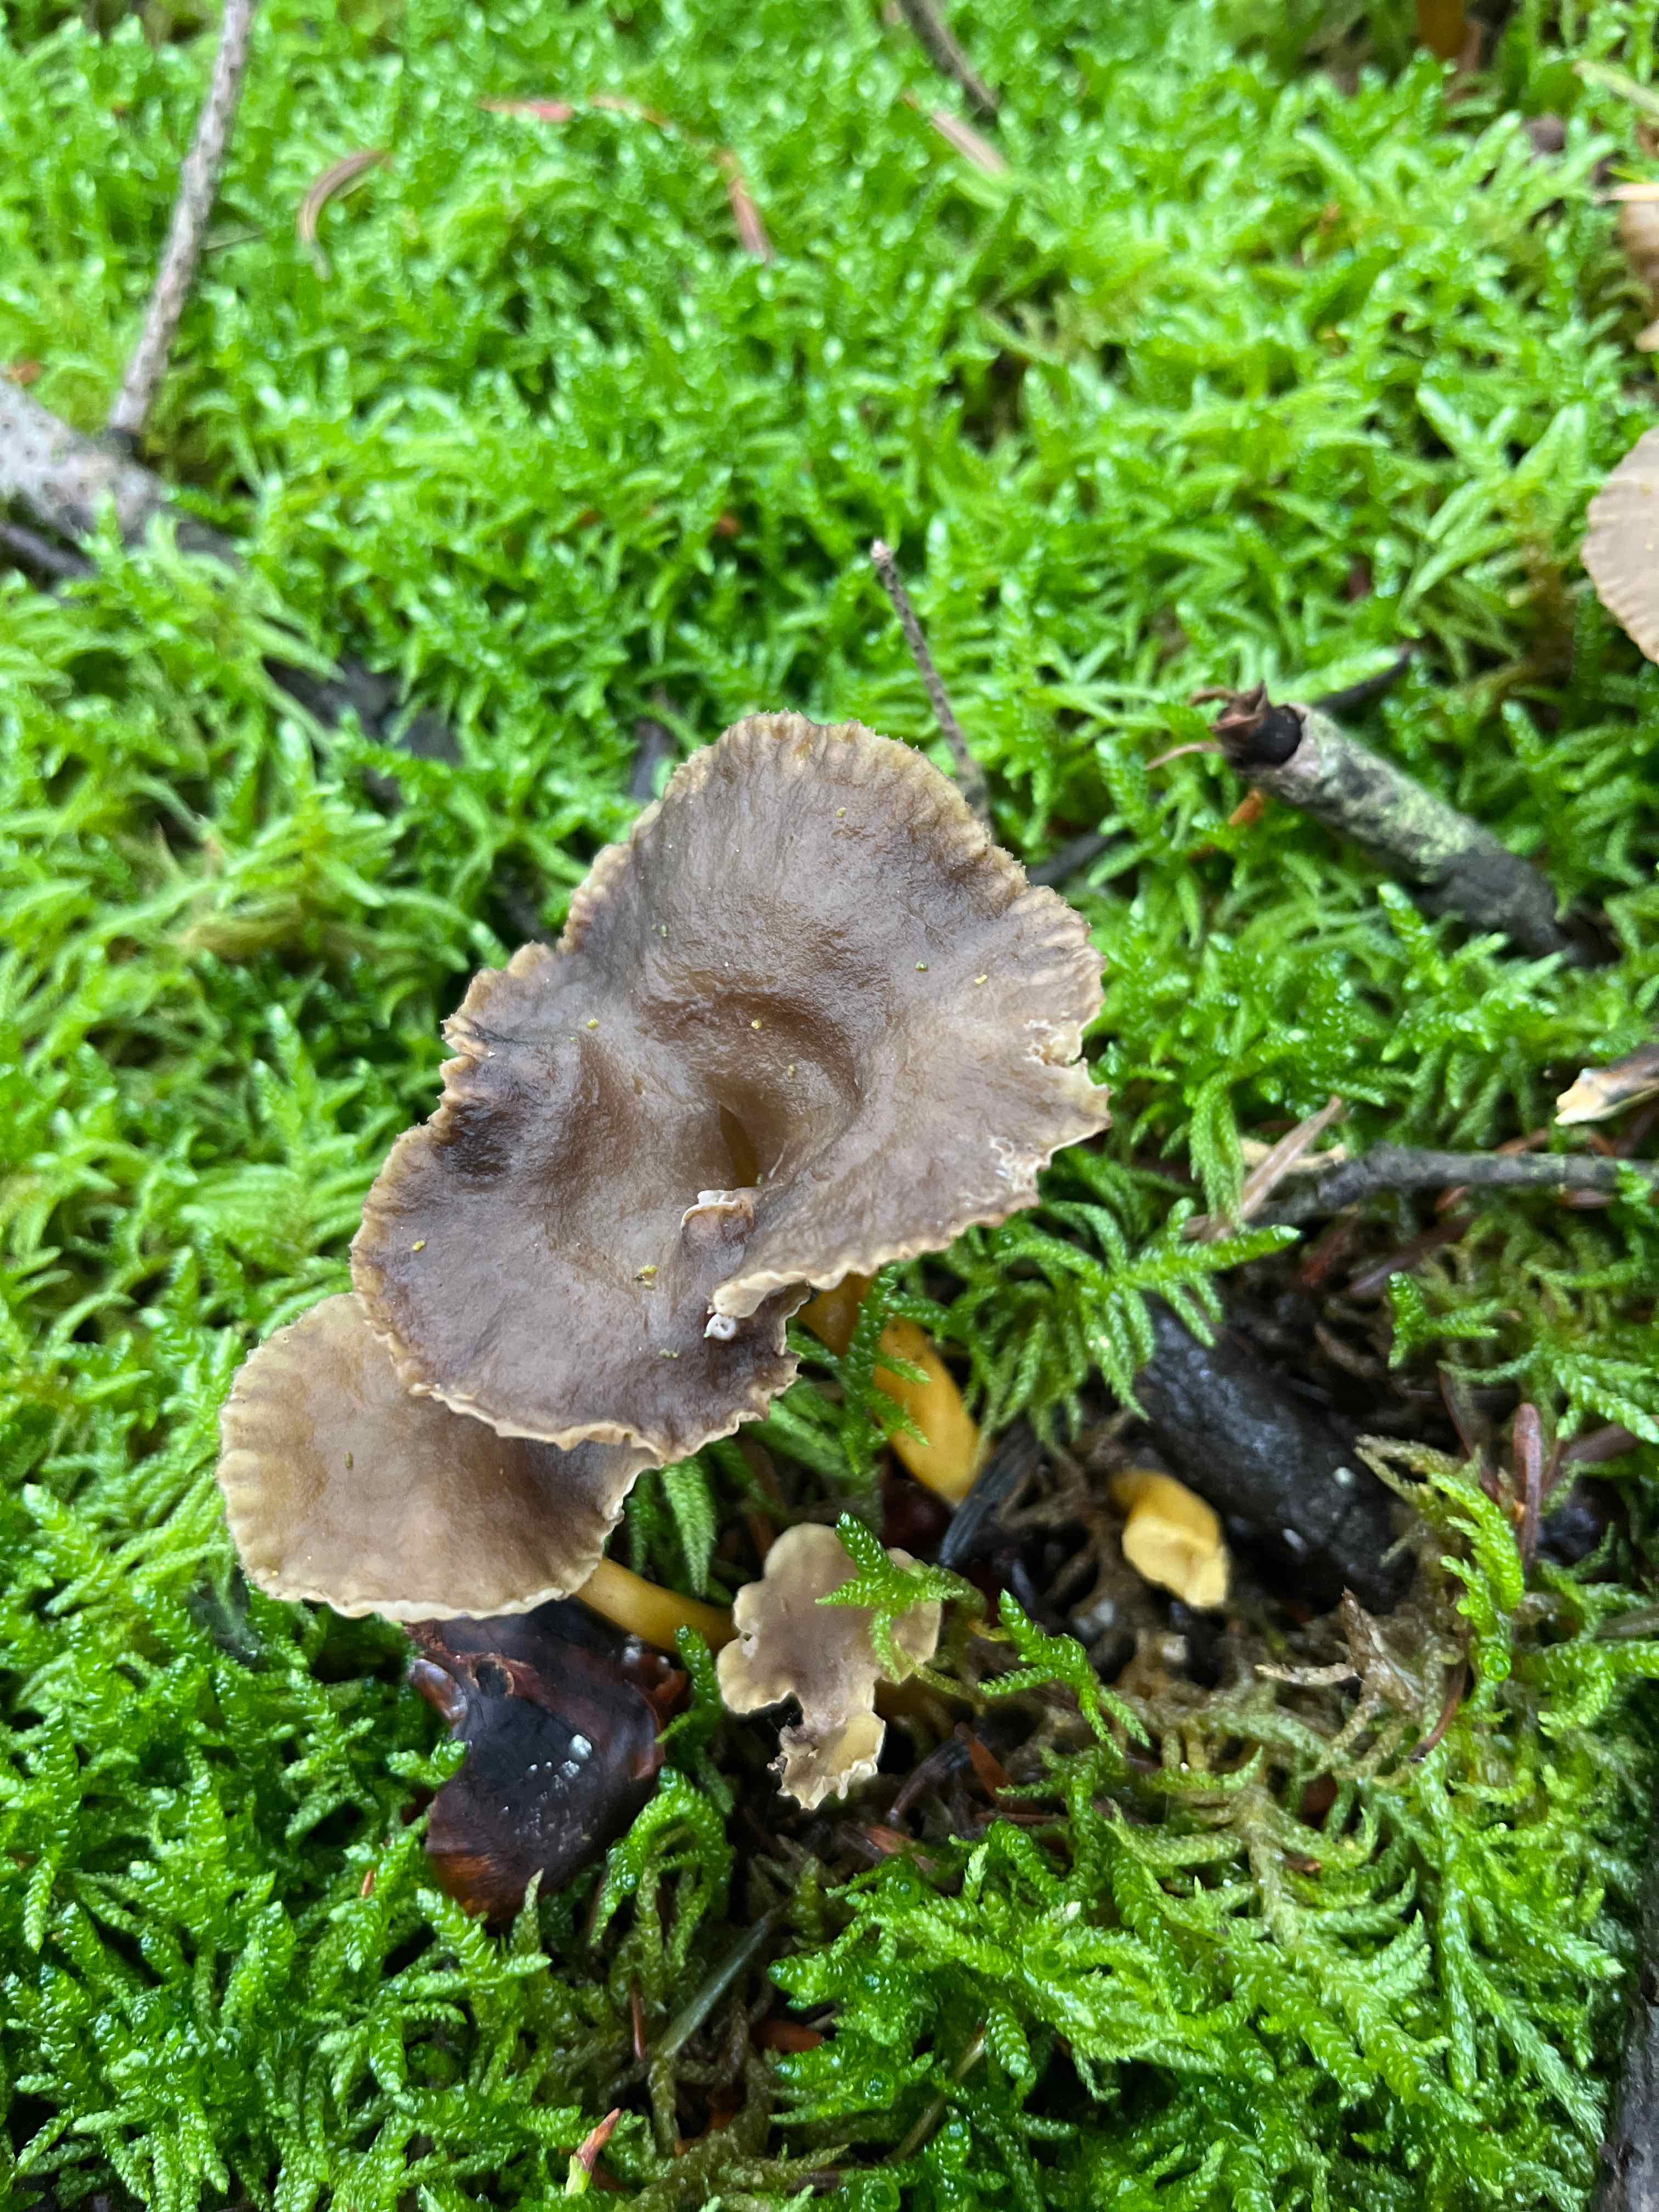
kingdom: Fungi
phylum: Basidiomycota
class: Agaricomycetes
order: Cantharellales
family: Hydnaceae
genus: Craterellus
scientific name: Craterellus tubaeformis
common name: tragt-kantarel
